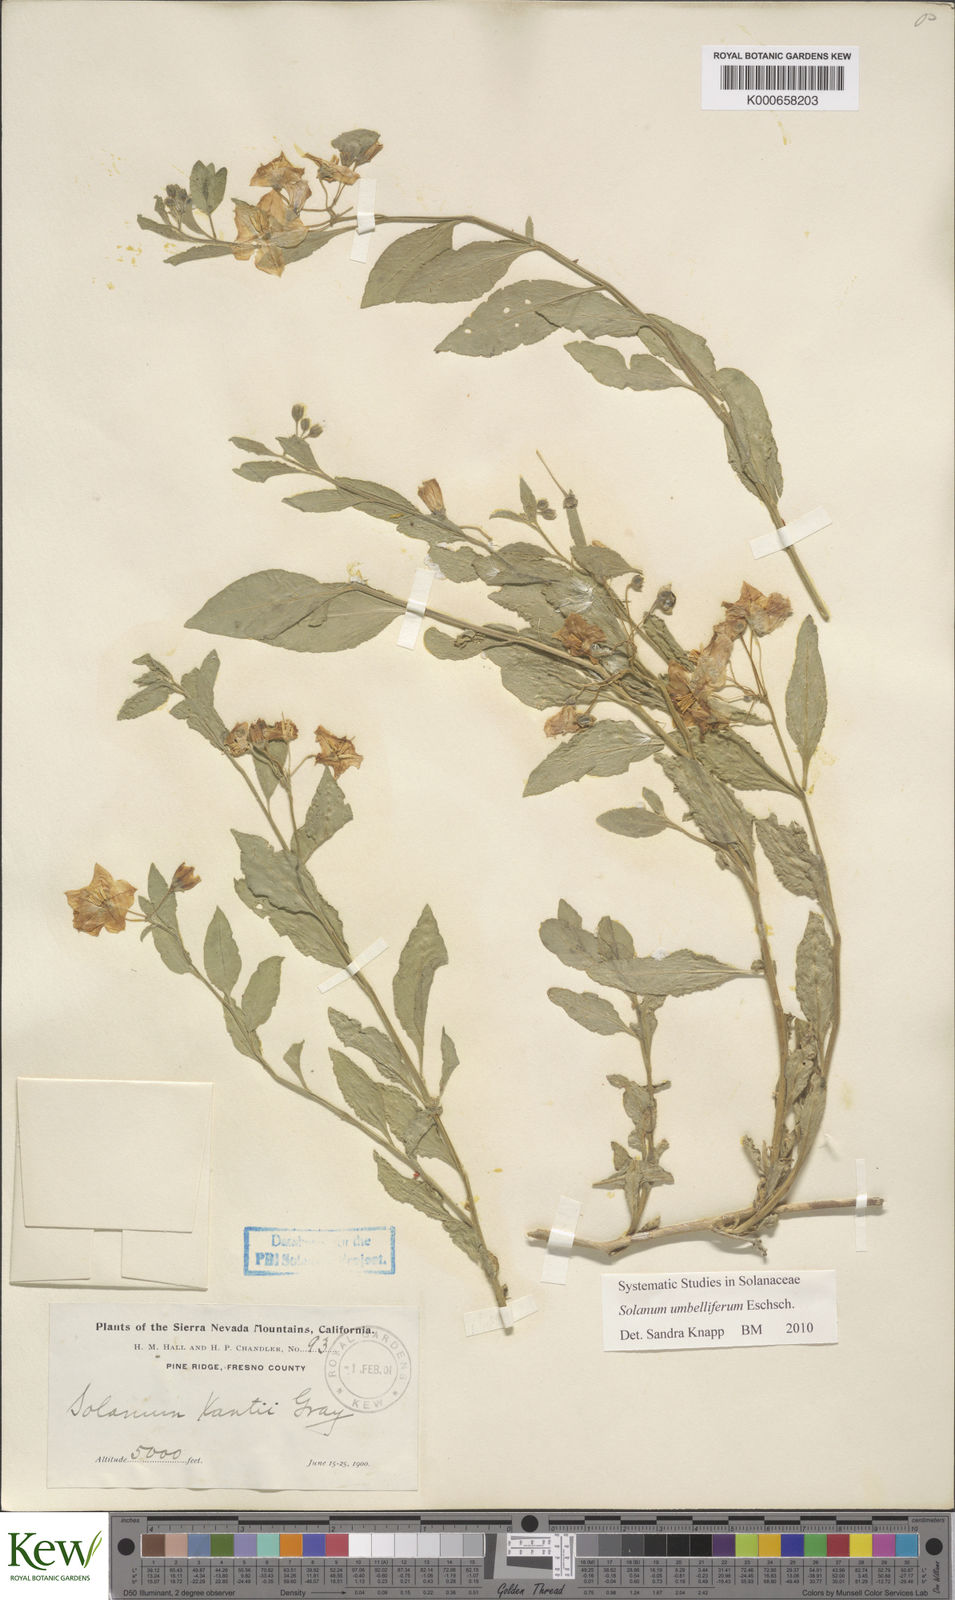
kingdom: Plantae
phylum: Tracheophyta
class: Magnoliopsida
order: Solanales
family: Solanaceae
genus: Solanum
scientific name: Solanum umbelliferum
